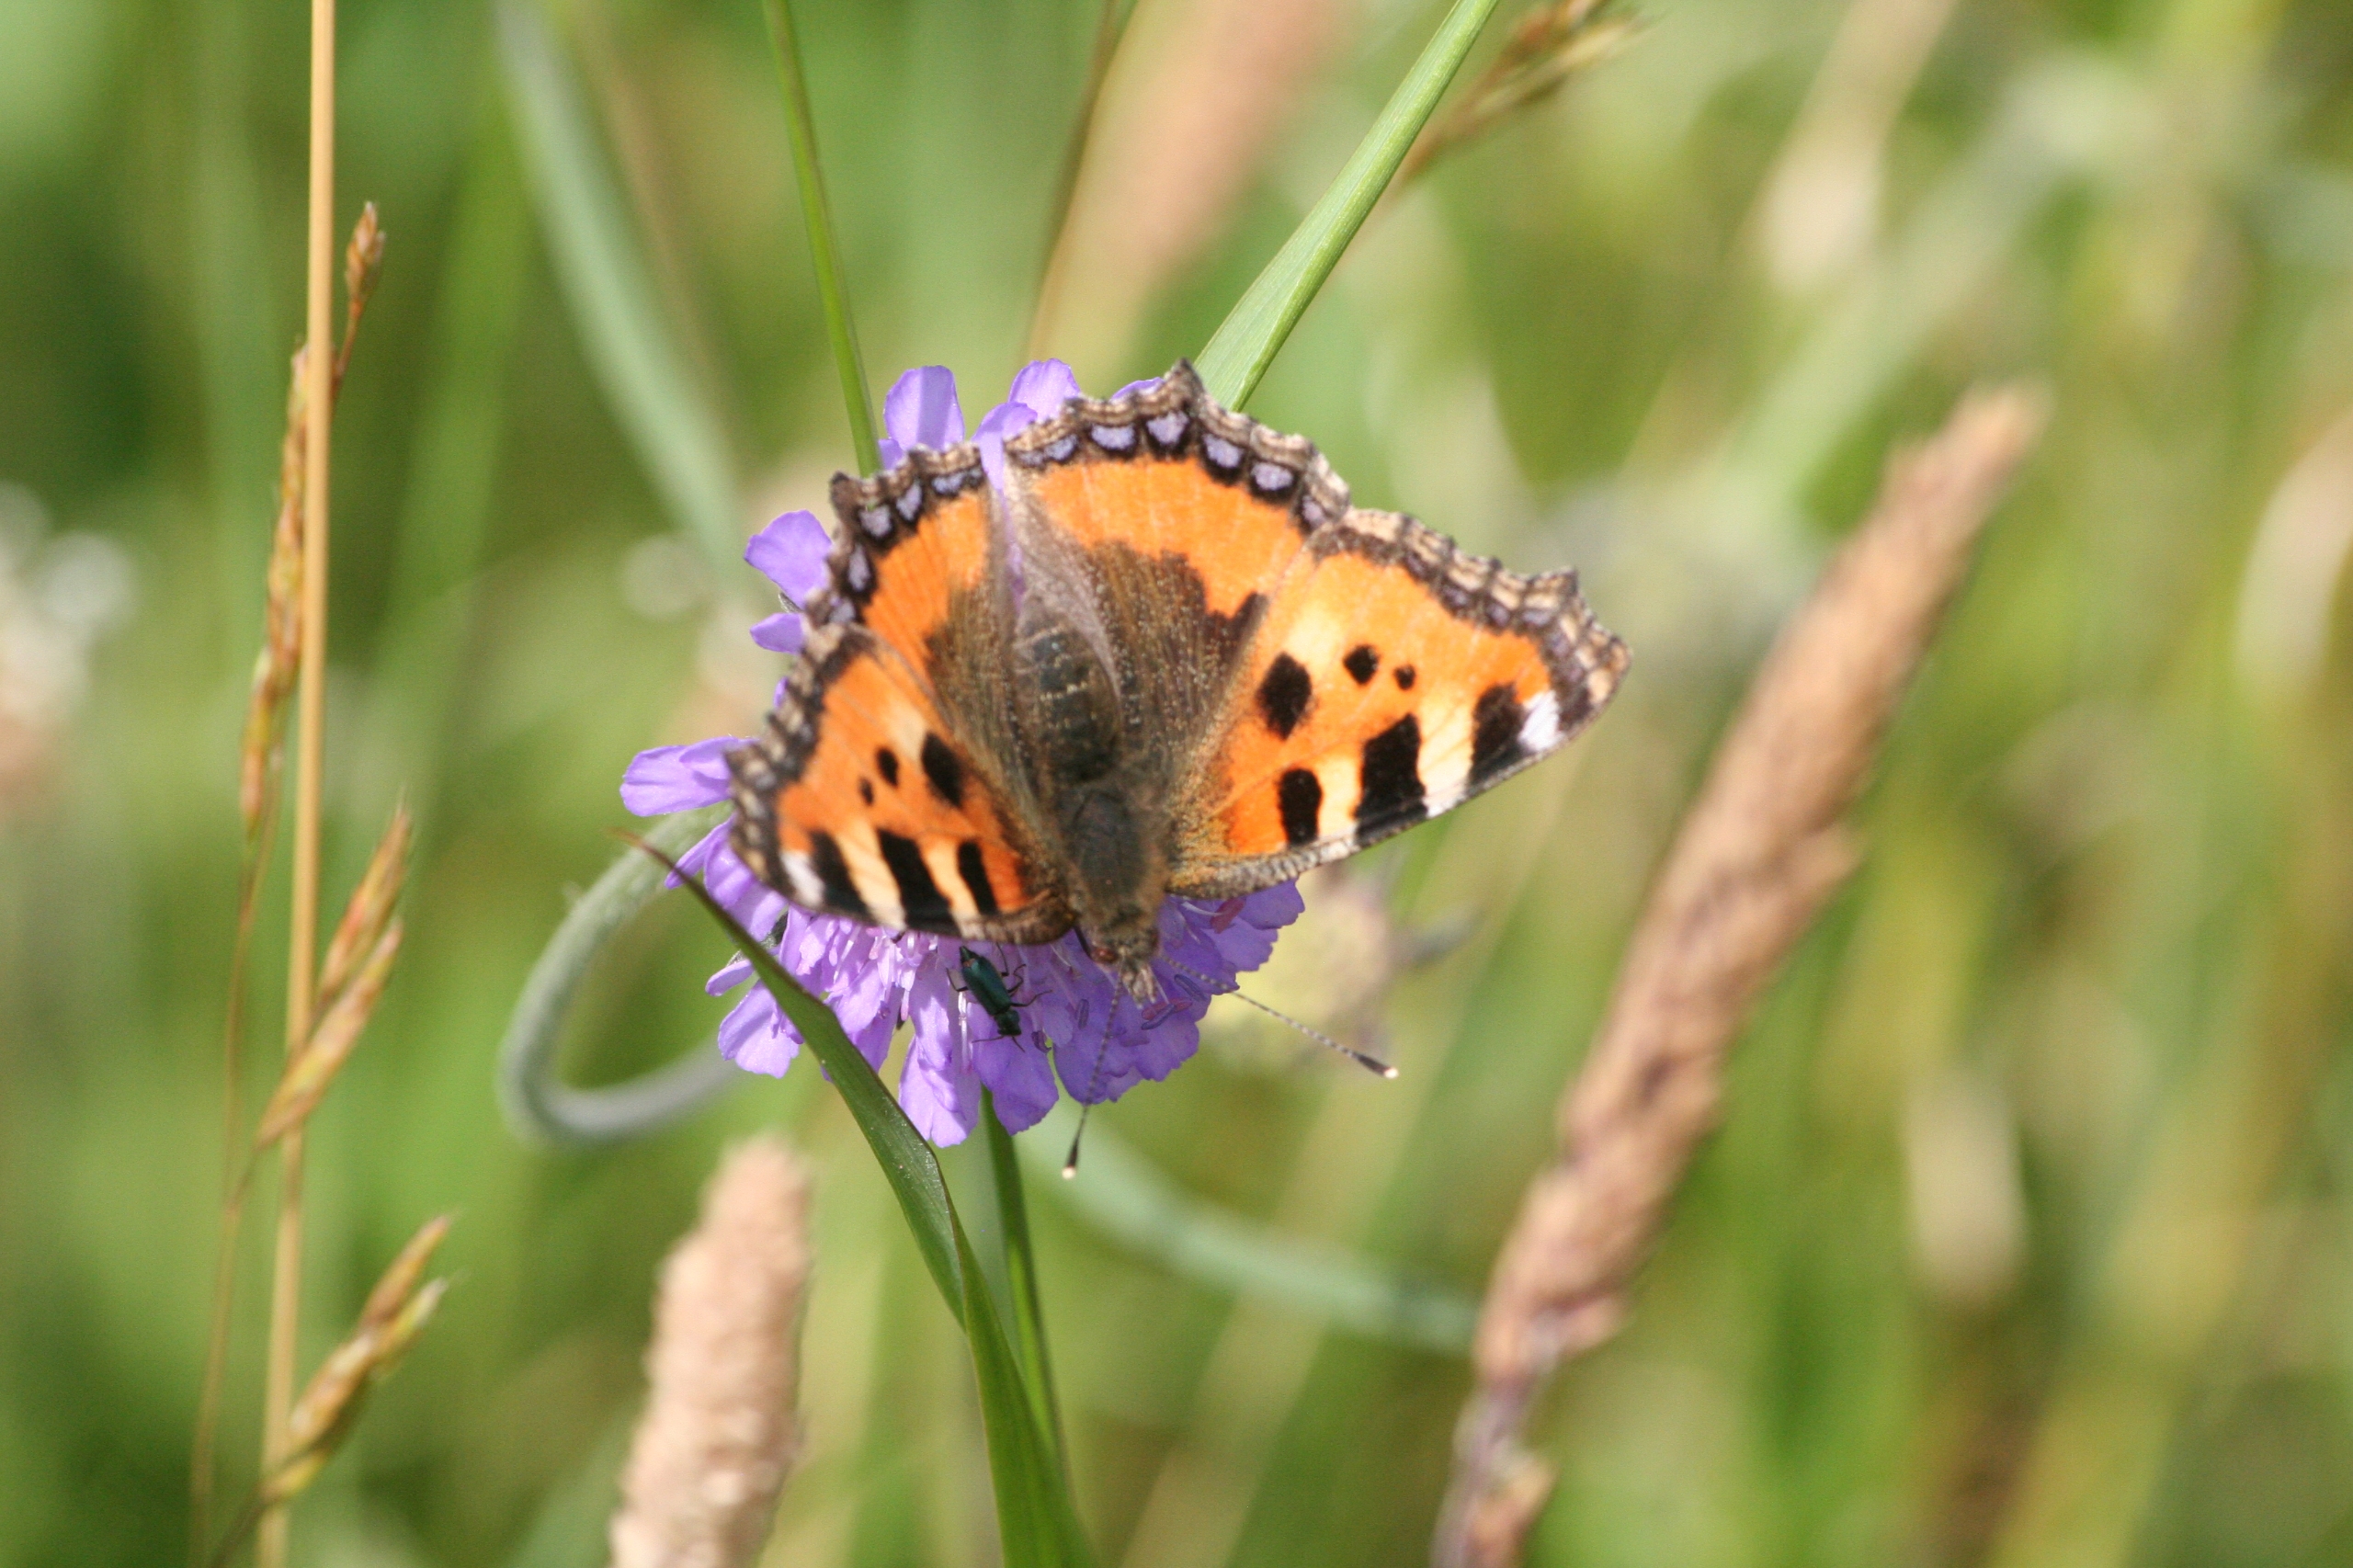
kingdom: Animalia
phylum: Arthropoda
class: Insecta
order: Lepidoptera
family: Nymphalidae
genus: Aglais
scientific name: Aglais urticae
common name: Nældens takvinge
